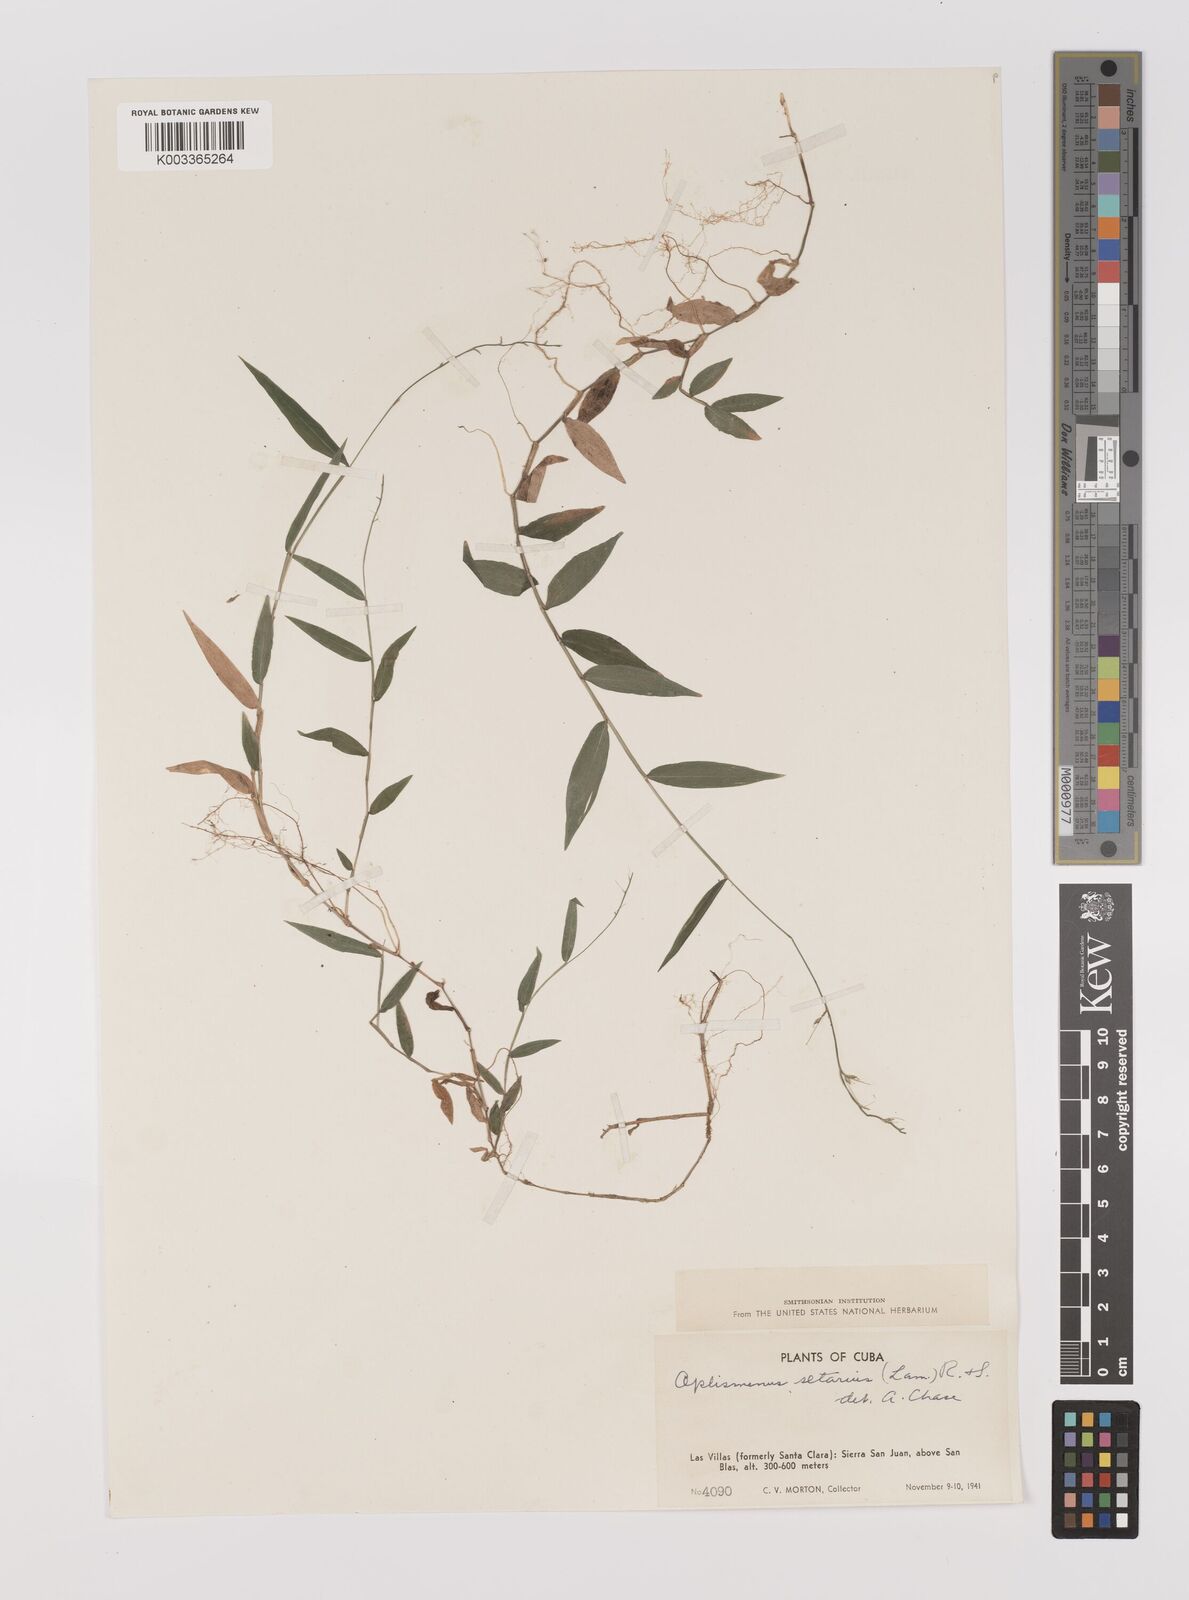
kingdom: Plantae
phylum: Tracheophyta
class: Liliopsida
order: Poales
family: Poaceae
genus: Oplismenus
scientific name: Oplismenus undulatifolius
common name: Wavyleaf basketgrass
